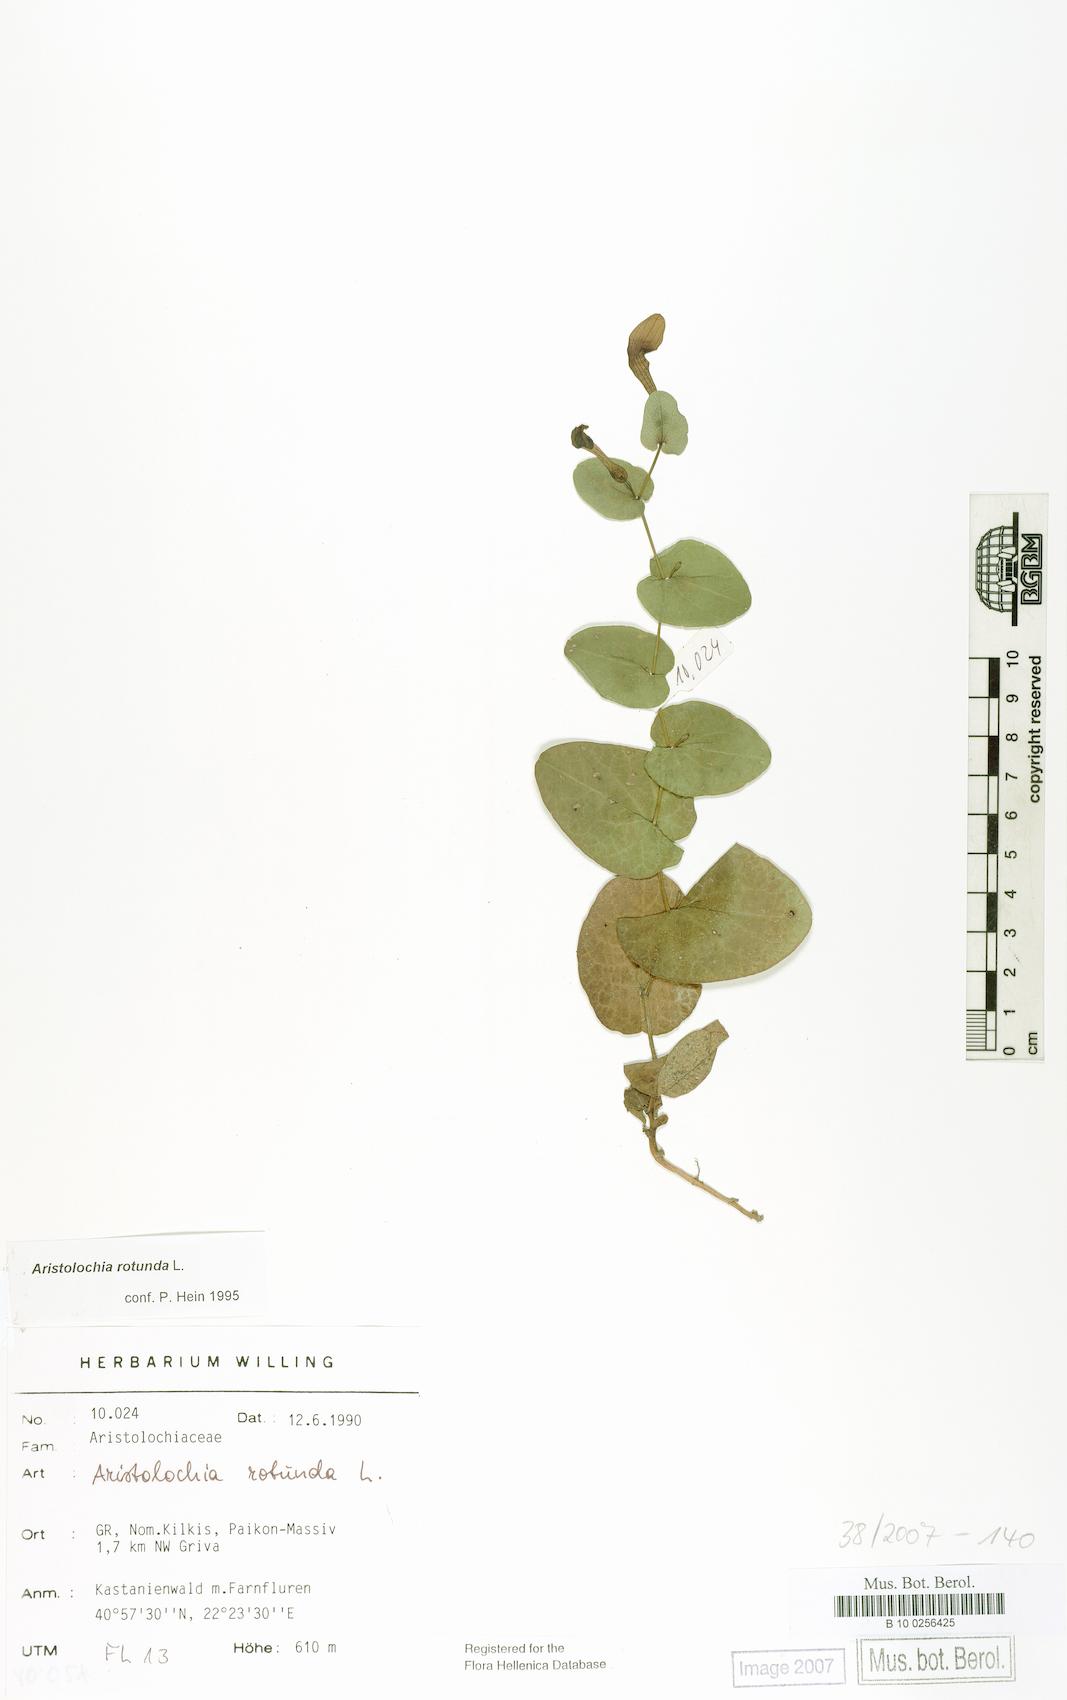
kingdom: Plantae
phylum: Tracheophyta
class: Magnoliopsida
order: Piperales
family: Aristolochiaceae
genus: Aristolochia
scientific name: Aristolochia rotunda
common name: Smearwort
